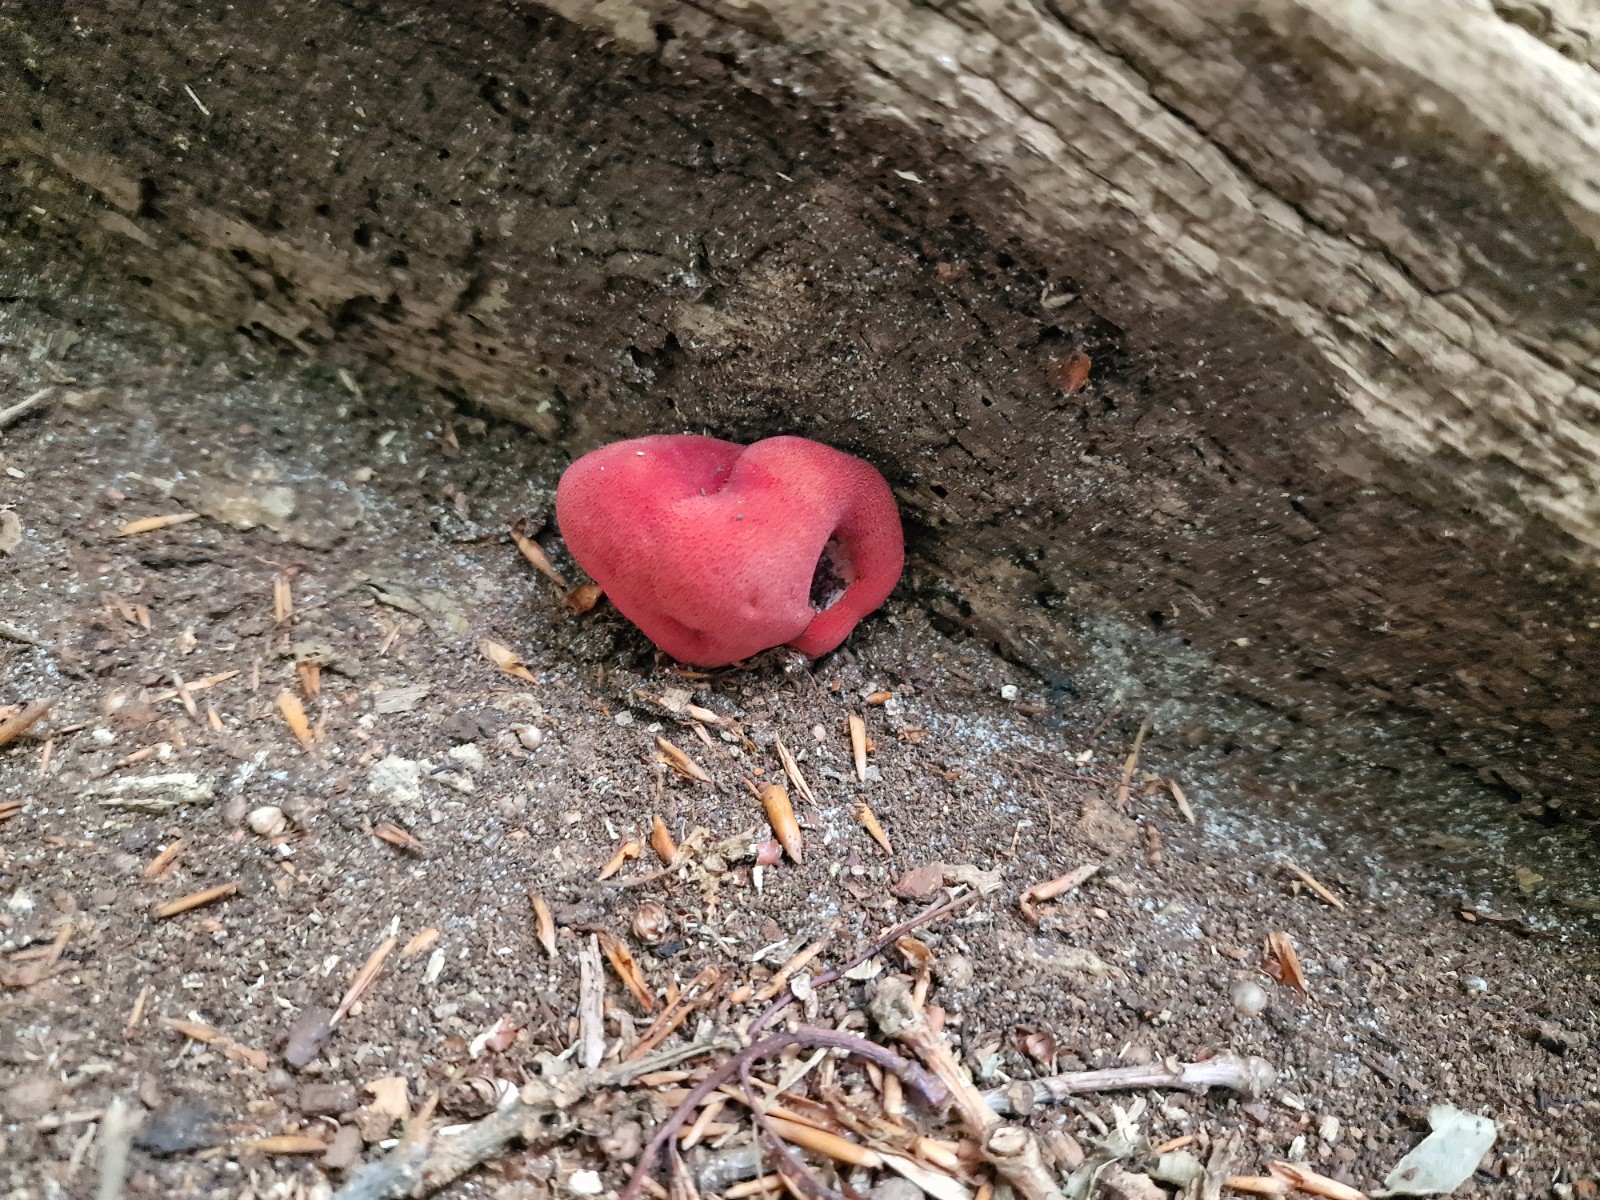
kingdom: Fungi
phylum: Basidiomycota
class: Agaricomycetes
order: Agaricales
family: Fistulinaceae
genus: Fistulina
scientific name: Fistulina hepatica
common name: oksetunge
